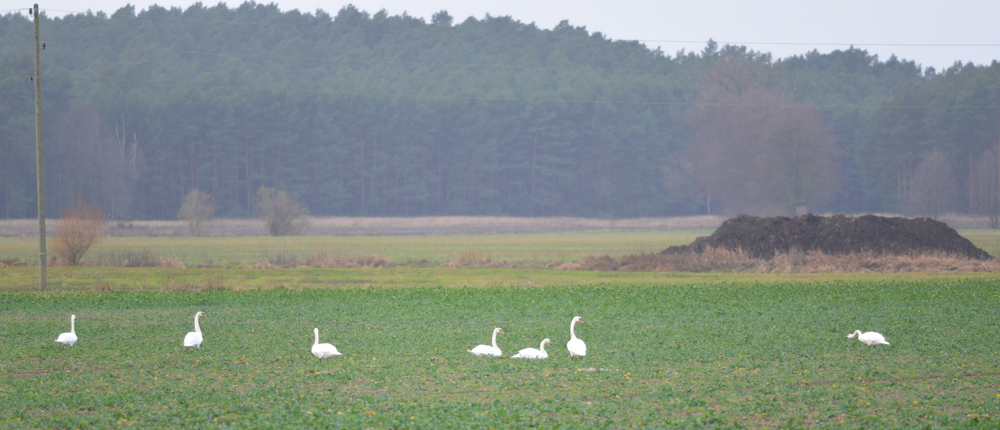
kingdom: Animalia
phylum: Chordata
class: Aves
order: Anseriformes
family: Anatidae
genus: Cygnus
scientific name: Cygnus olor
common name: Mute swan
